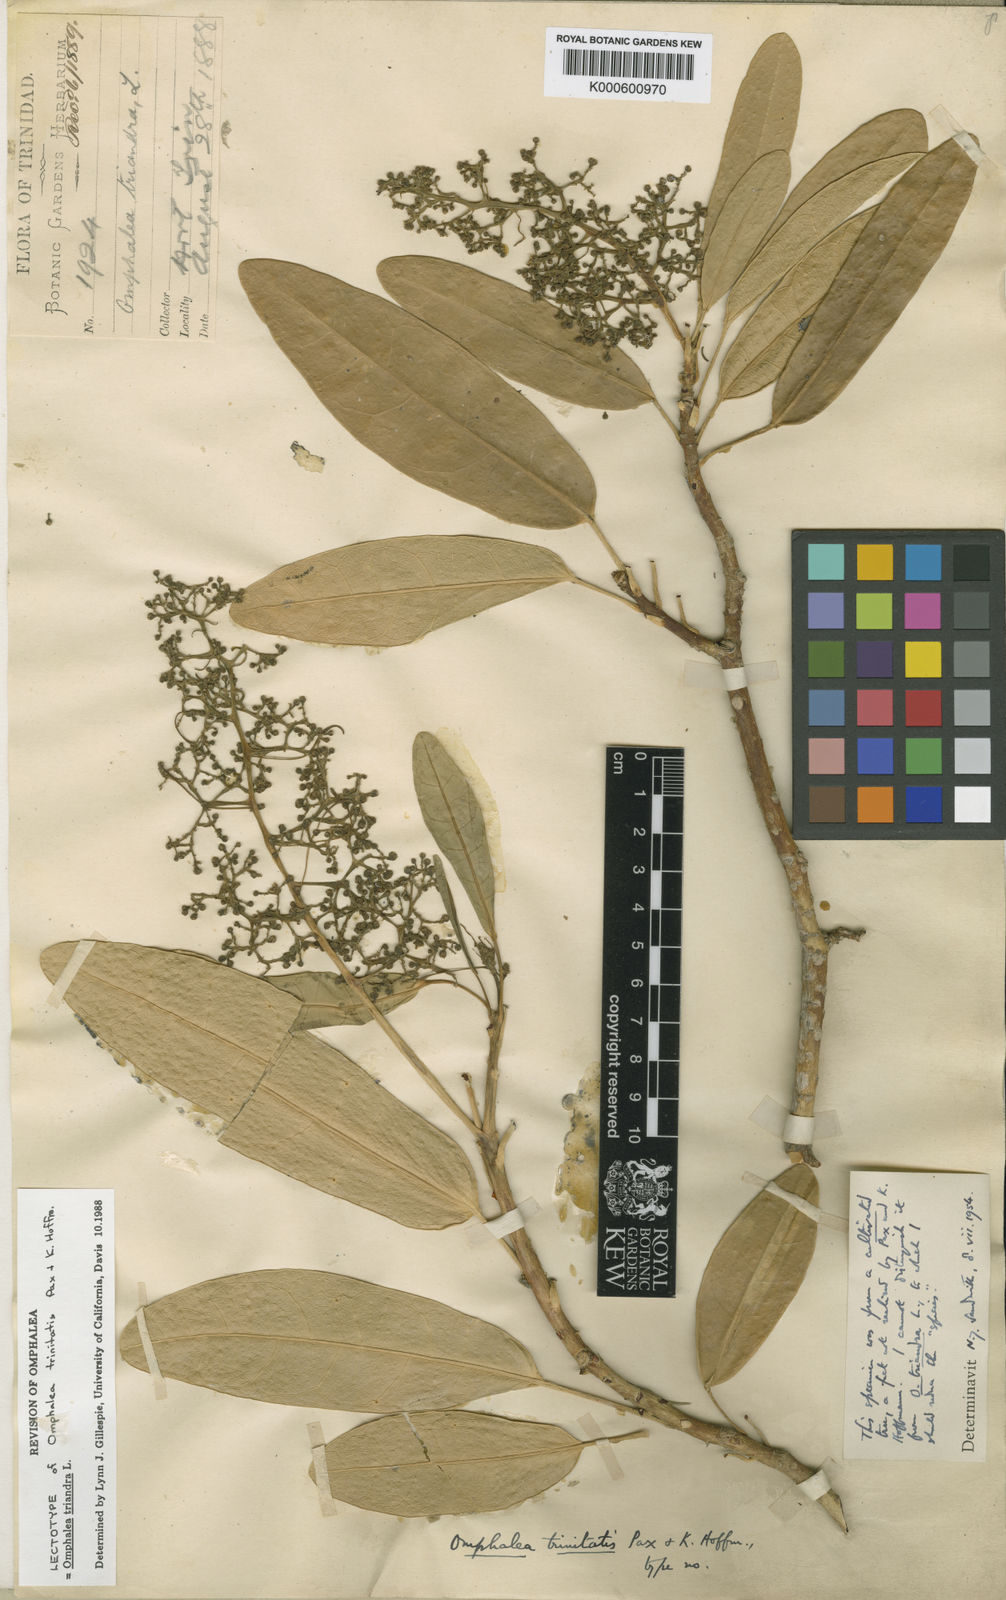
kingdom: Plantae
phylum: Tracheophyta
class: Magnoliopsida
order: Malpighiales
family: Euphorbiaceae
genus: Omphalea
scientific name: Omphalea triandra
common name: Jamaican cobnut
